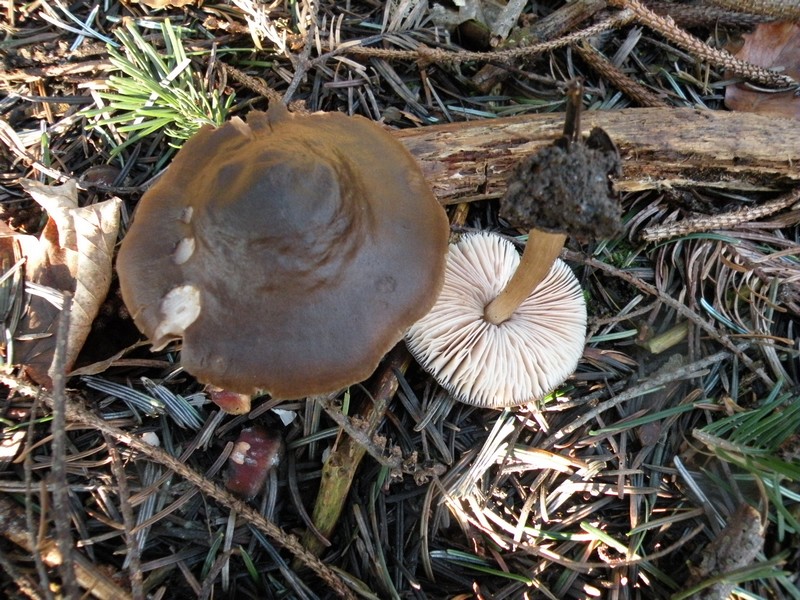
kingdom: Fungi
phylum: Basidiomycota
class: Agaricomycetes
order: Agaricales
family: Pluteaceae
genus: Pluteus
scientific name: Pluteus cervinus
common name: sodfarvet skærmhat
